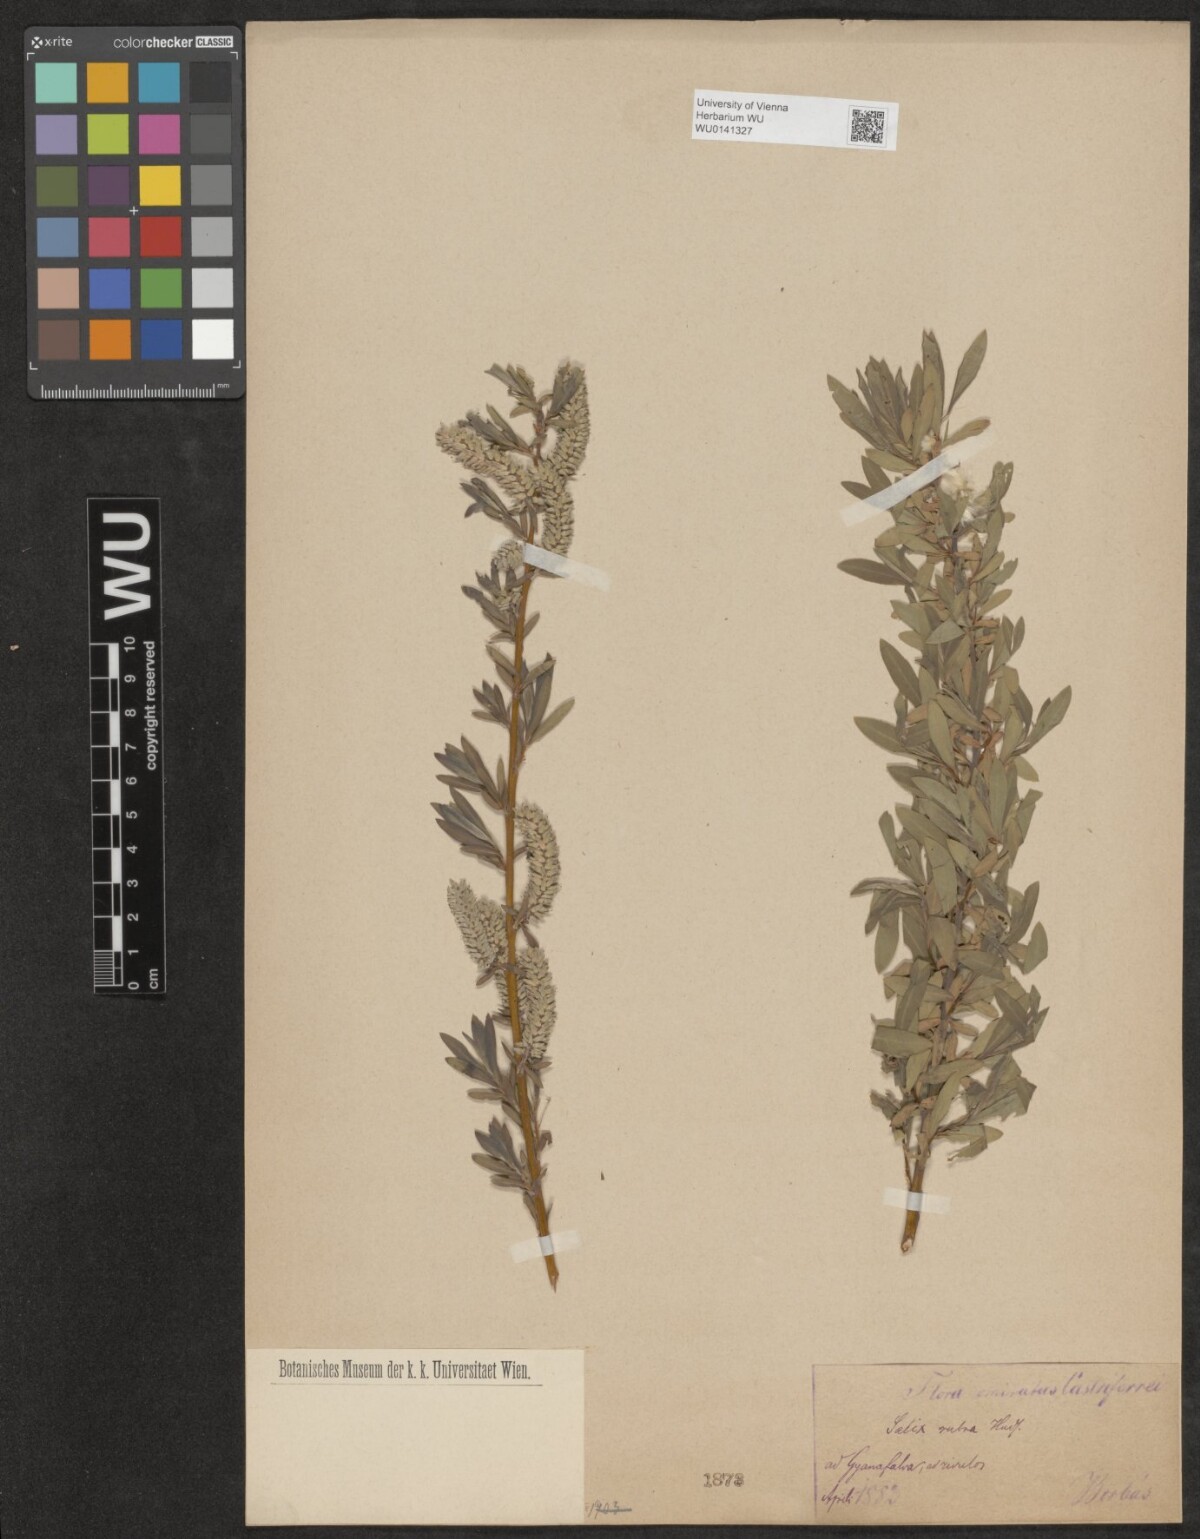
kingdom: Plantae
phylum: Tracheophyta
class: Magnoliopsida
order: Malpighiales
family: Salicaceae
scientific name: Salicaceae
